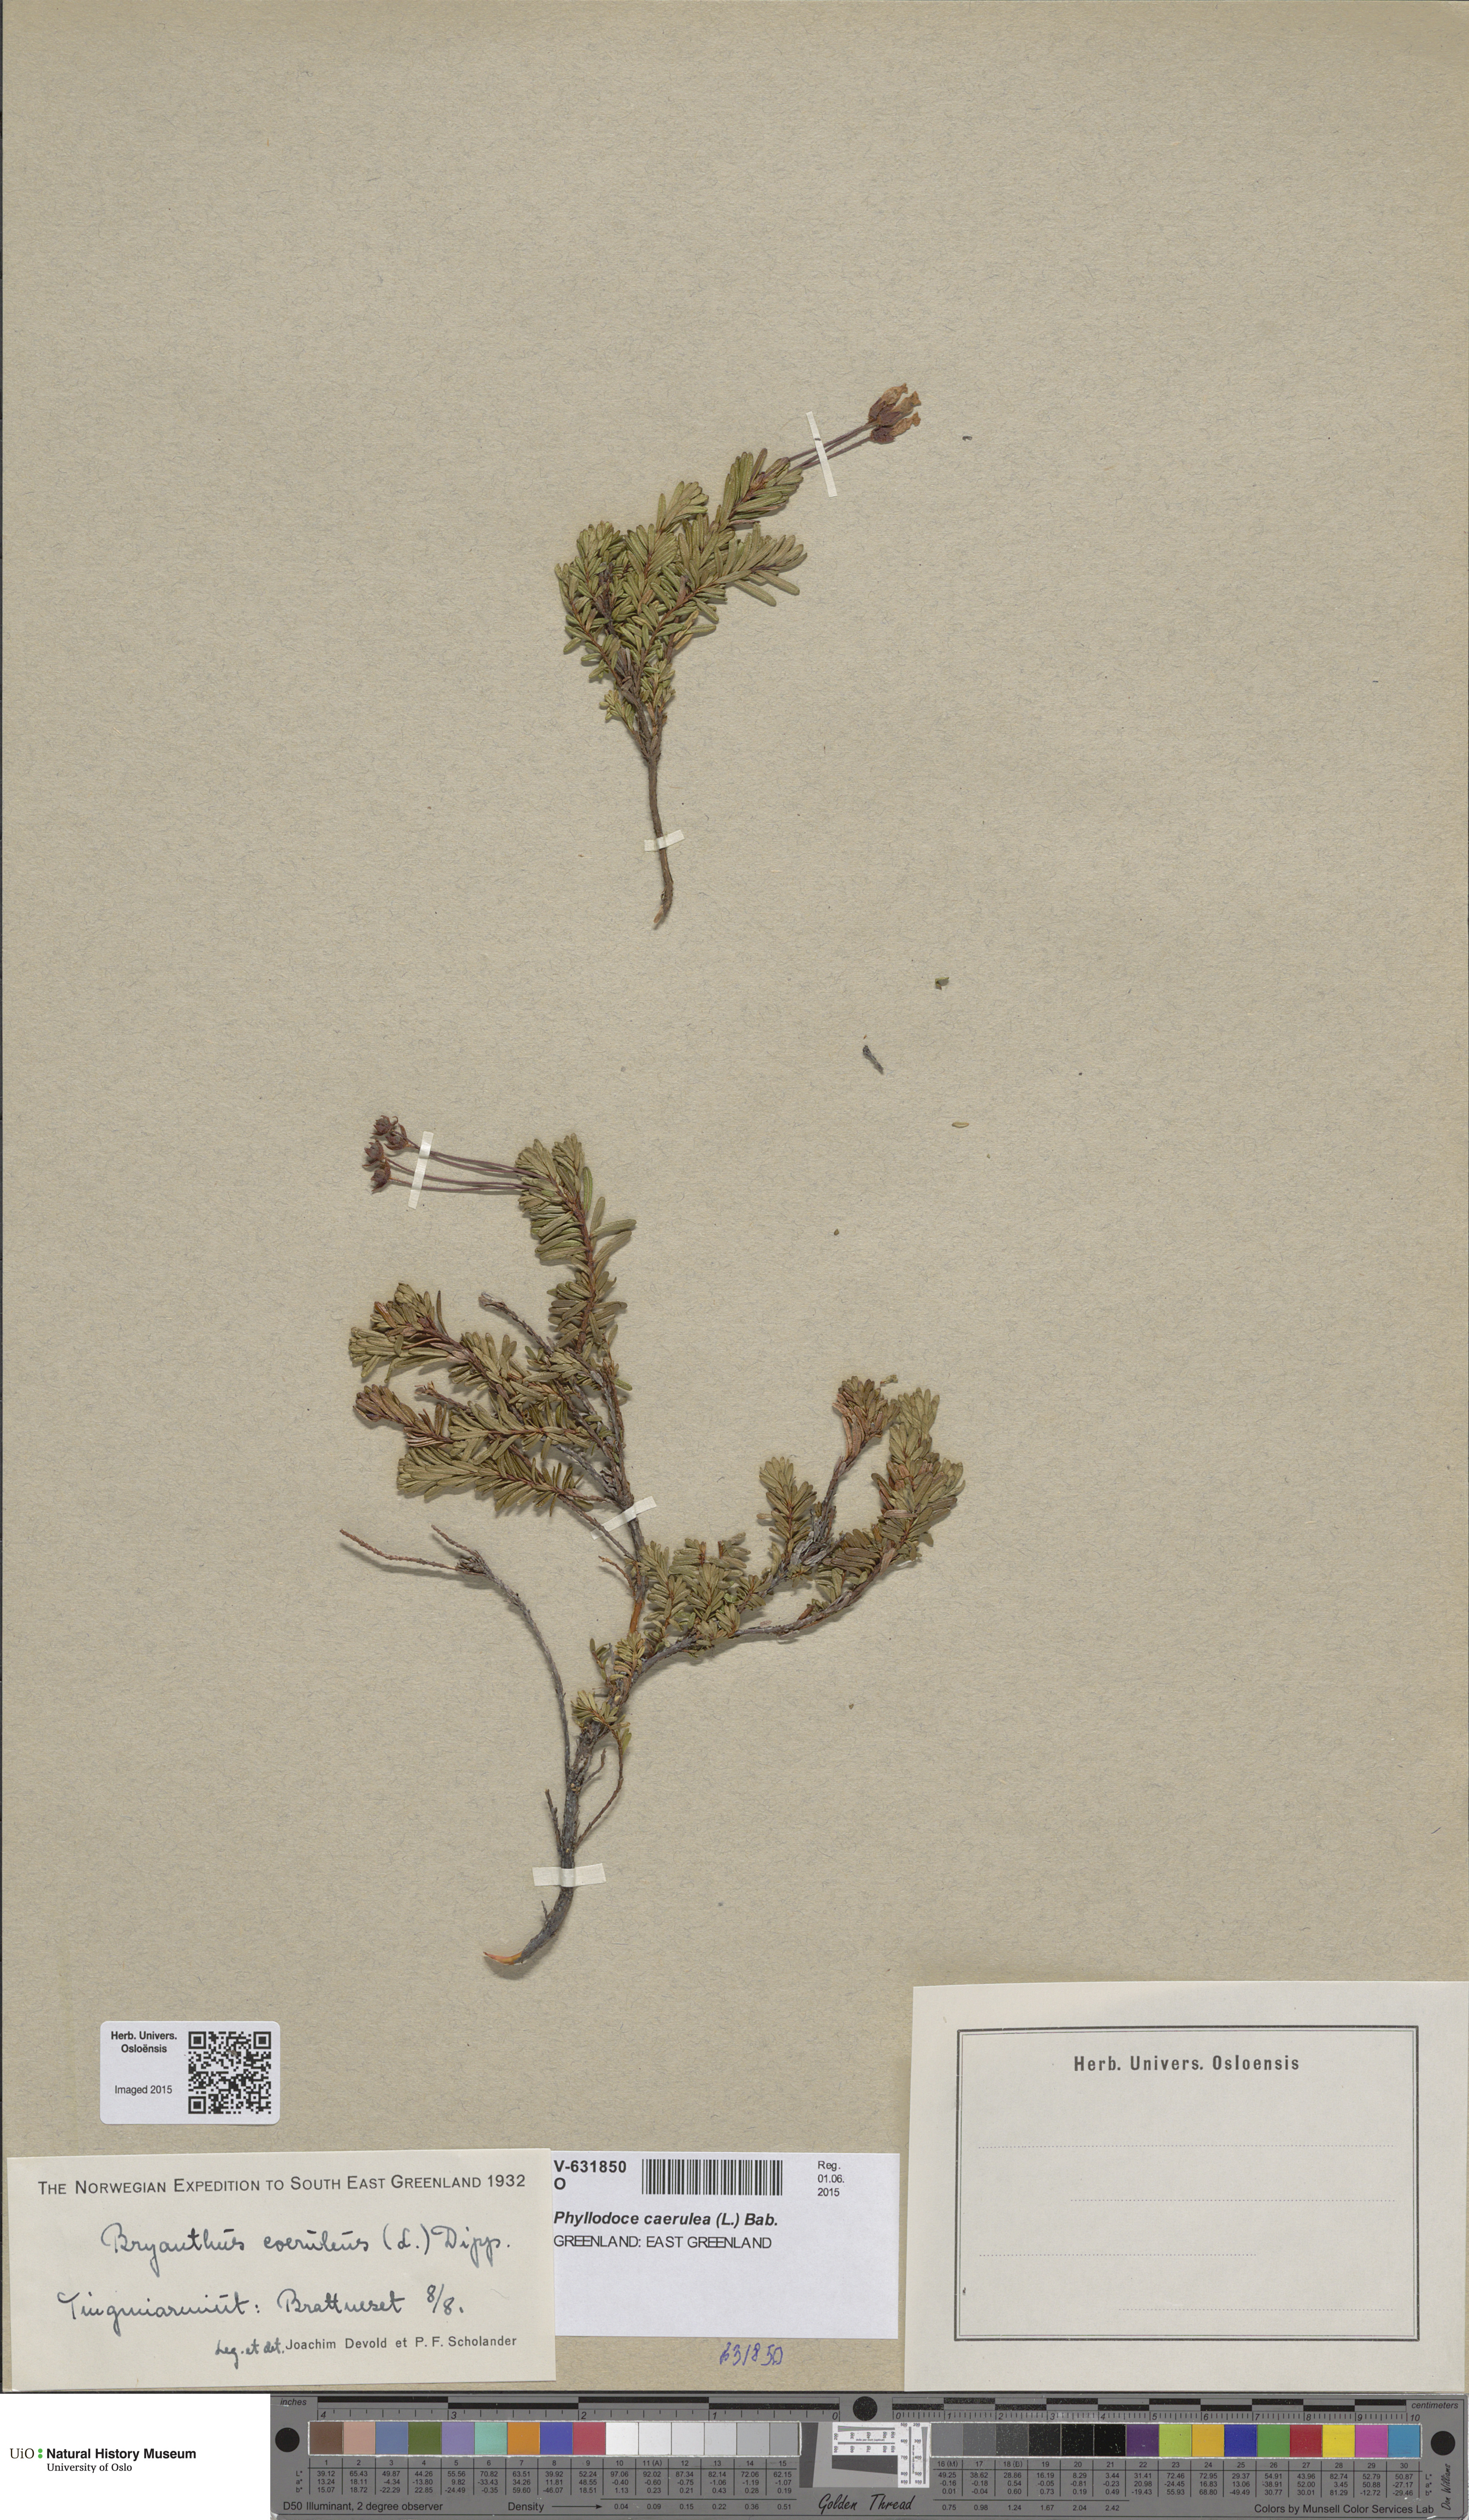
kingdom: Plantae
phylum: Tracheophyta
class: Magnoliopsida
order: Ericales
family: Ericaceae
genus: Phyllodoce
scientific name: Phyllodoce caerulea
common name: Blue heath
